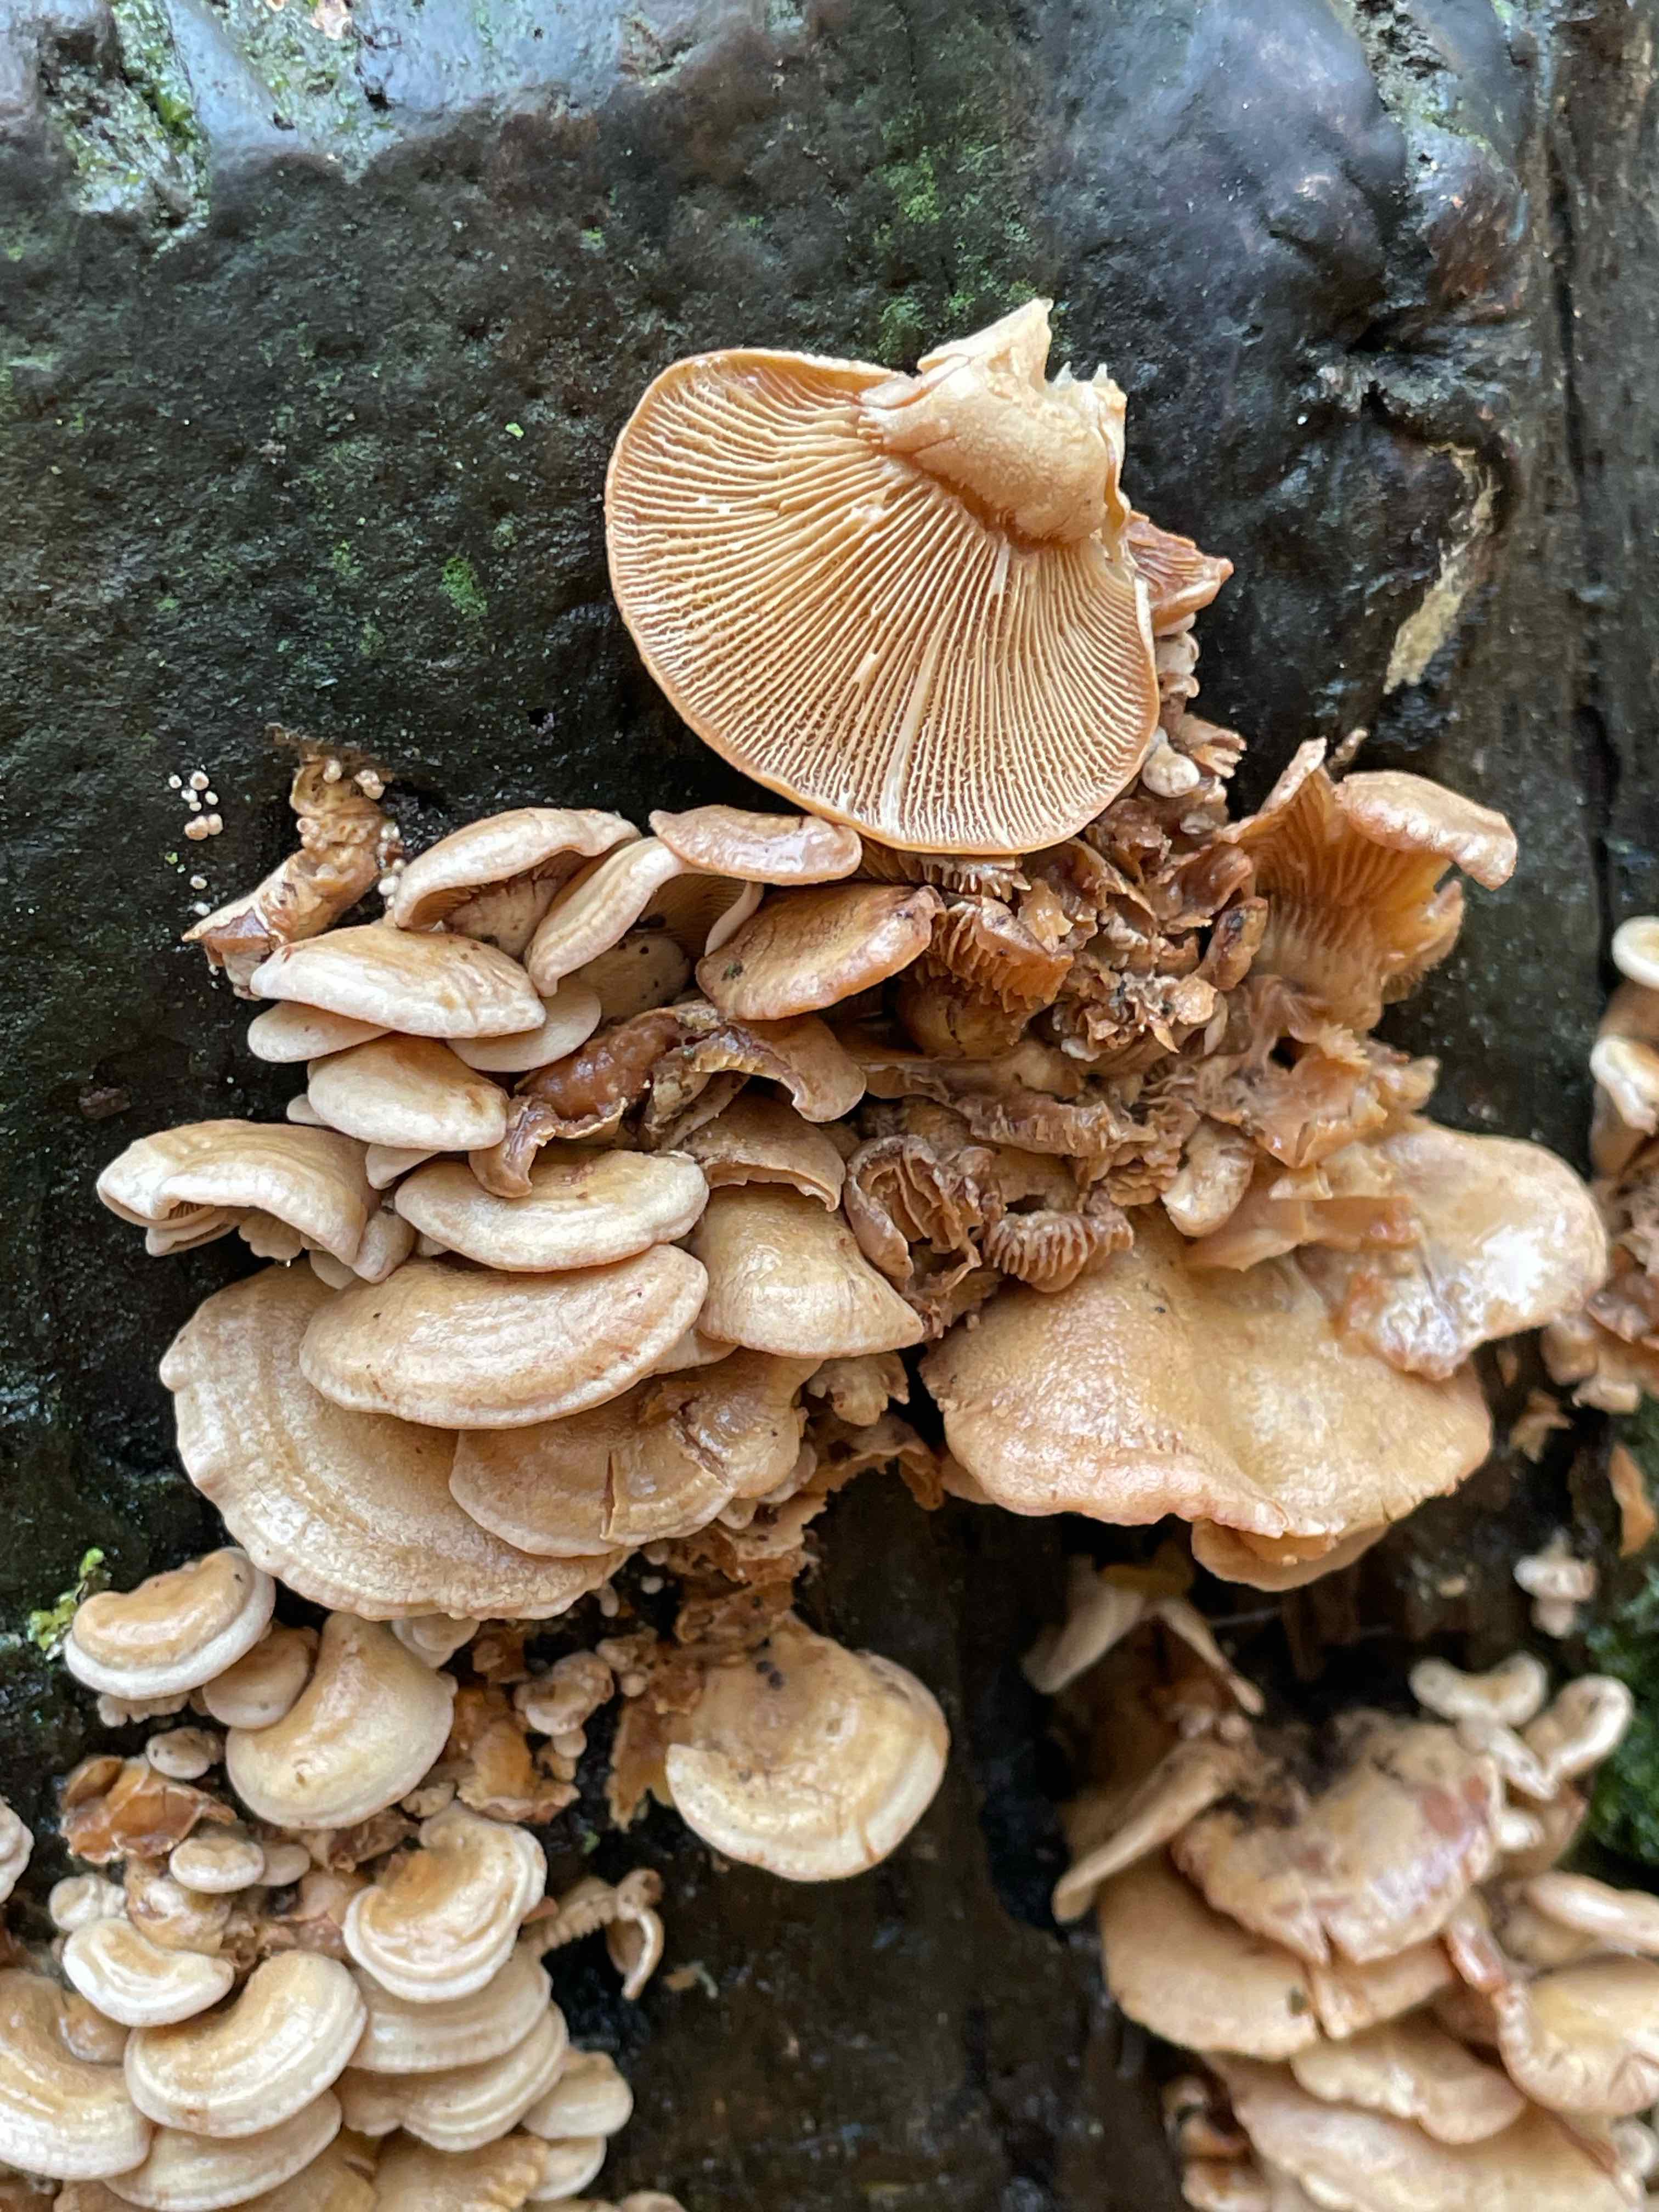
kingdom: Fungi
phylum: Basidiomycota
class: Agaricomycetes
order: Agaricales
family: Mycenaceae
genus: Panellus
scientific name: Panellus stipticus
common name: kliddet epaulethat
